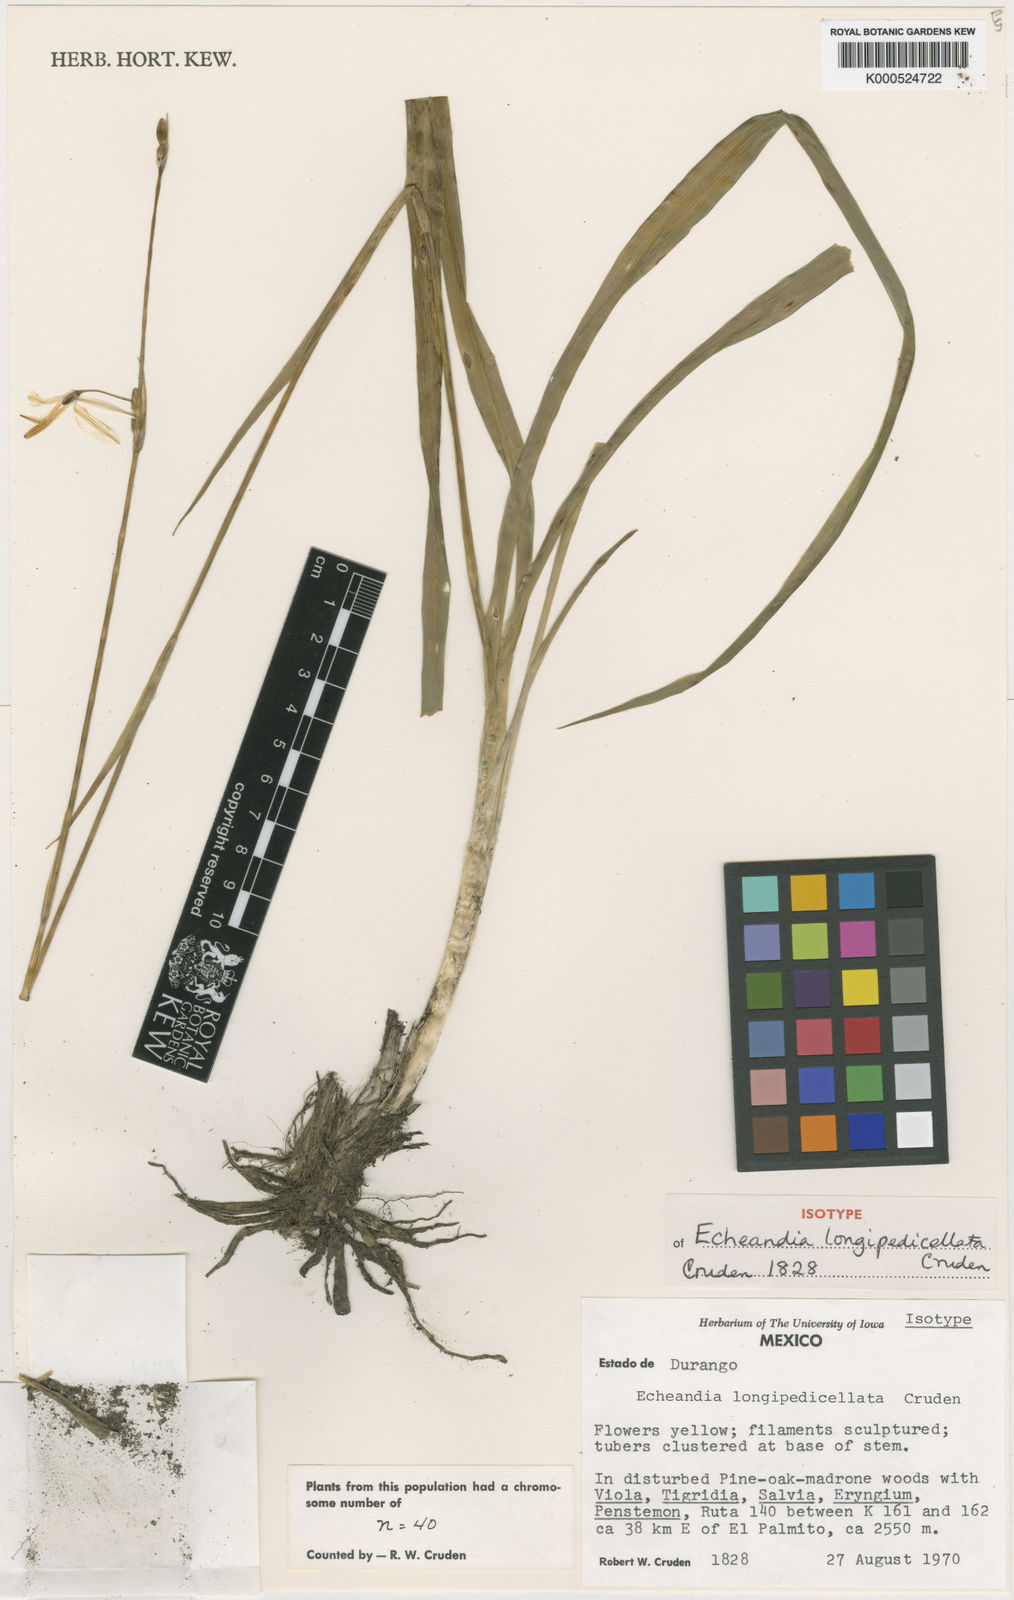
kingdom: Plantae
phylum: Tracheophyta
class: Liliopsida
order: Asparagales
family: Asparagaceae
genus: Echeandia
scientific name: Echeandia longipedicellata
